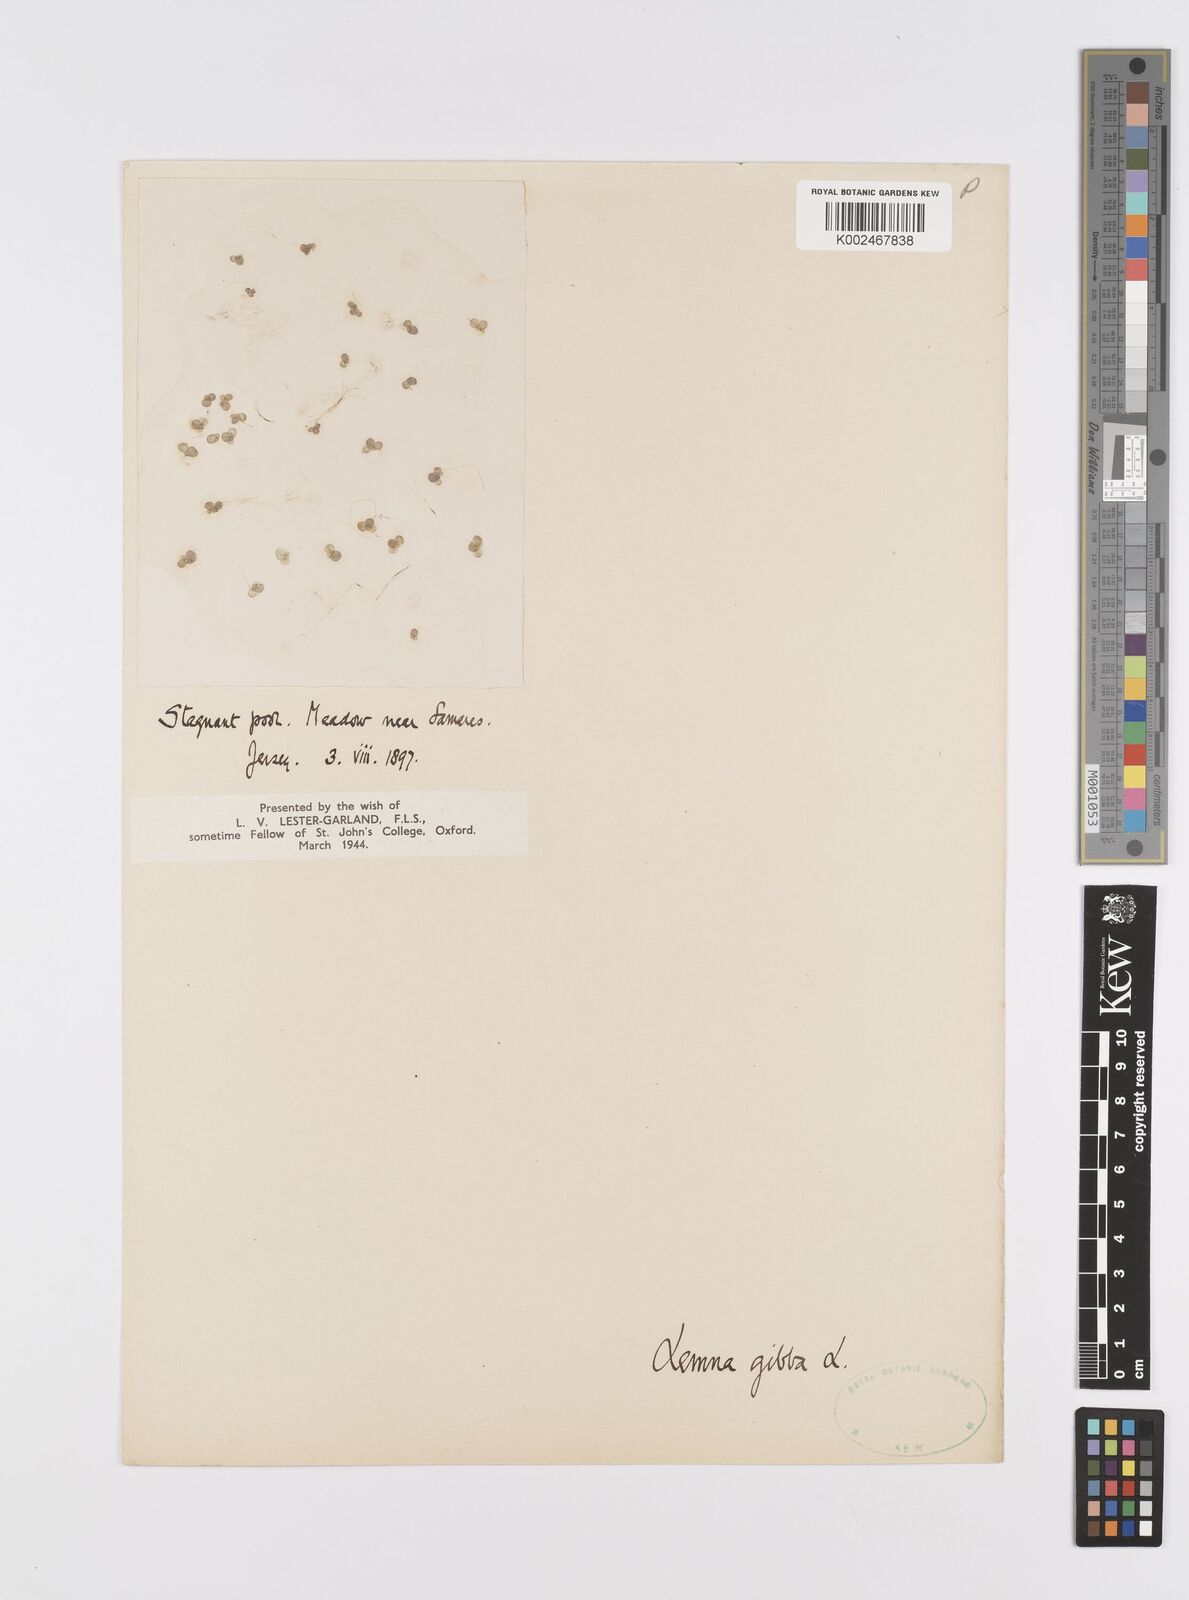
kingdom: Plantae
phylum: Tracheophyta
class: Liliopsida
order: Alismatales
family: Araceae
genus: Lemna
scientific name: Lemna gibba
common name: Fat duckweed
